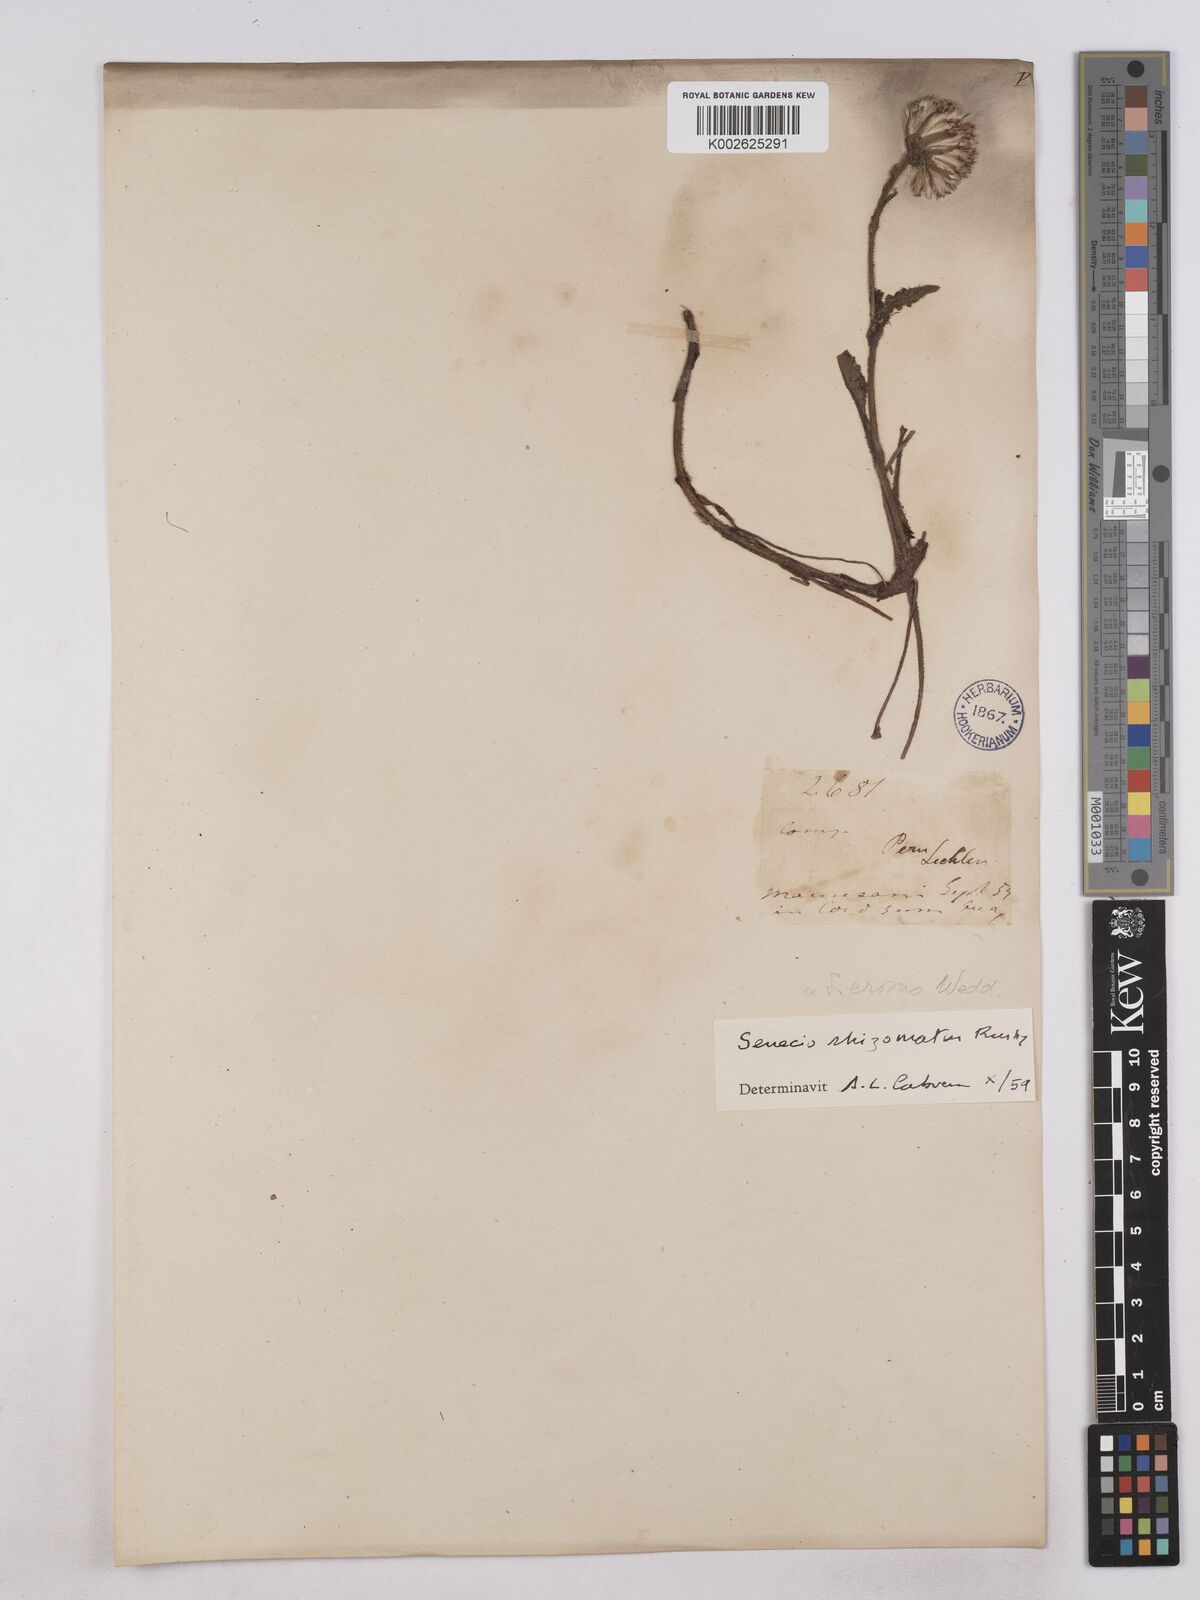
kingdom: Plantae
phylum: Tracheophyta
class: Magnoliopsida
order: Asterales
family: Asteraceae
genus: Senecio
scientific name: Senecio rhizomatus
